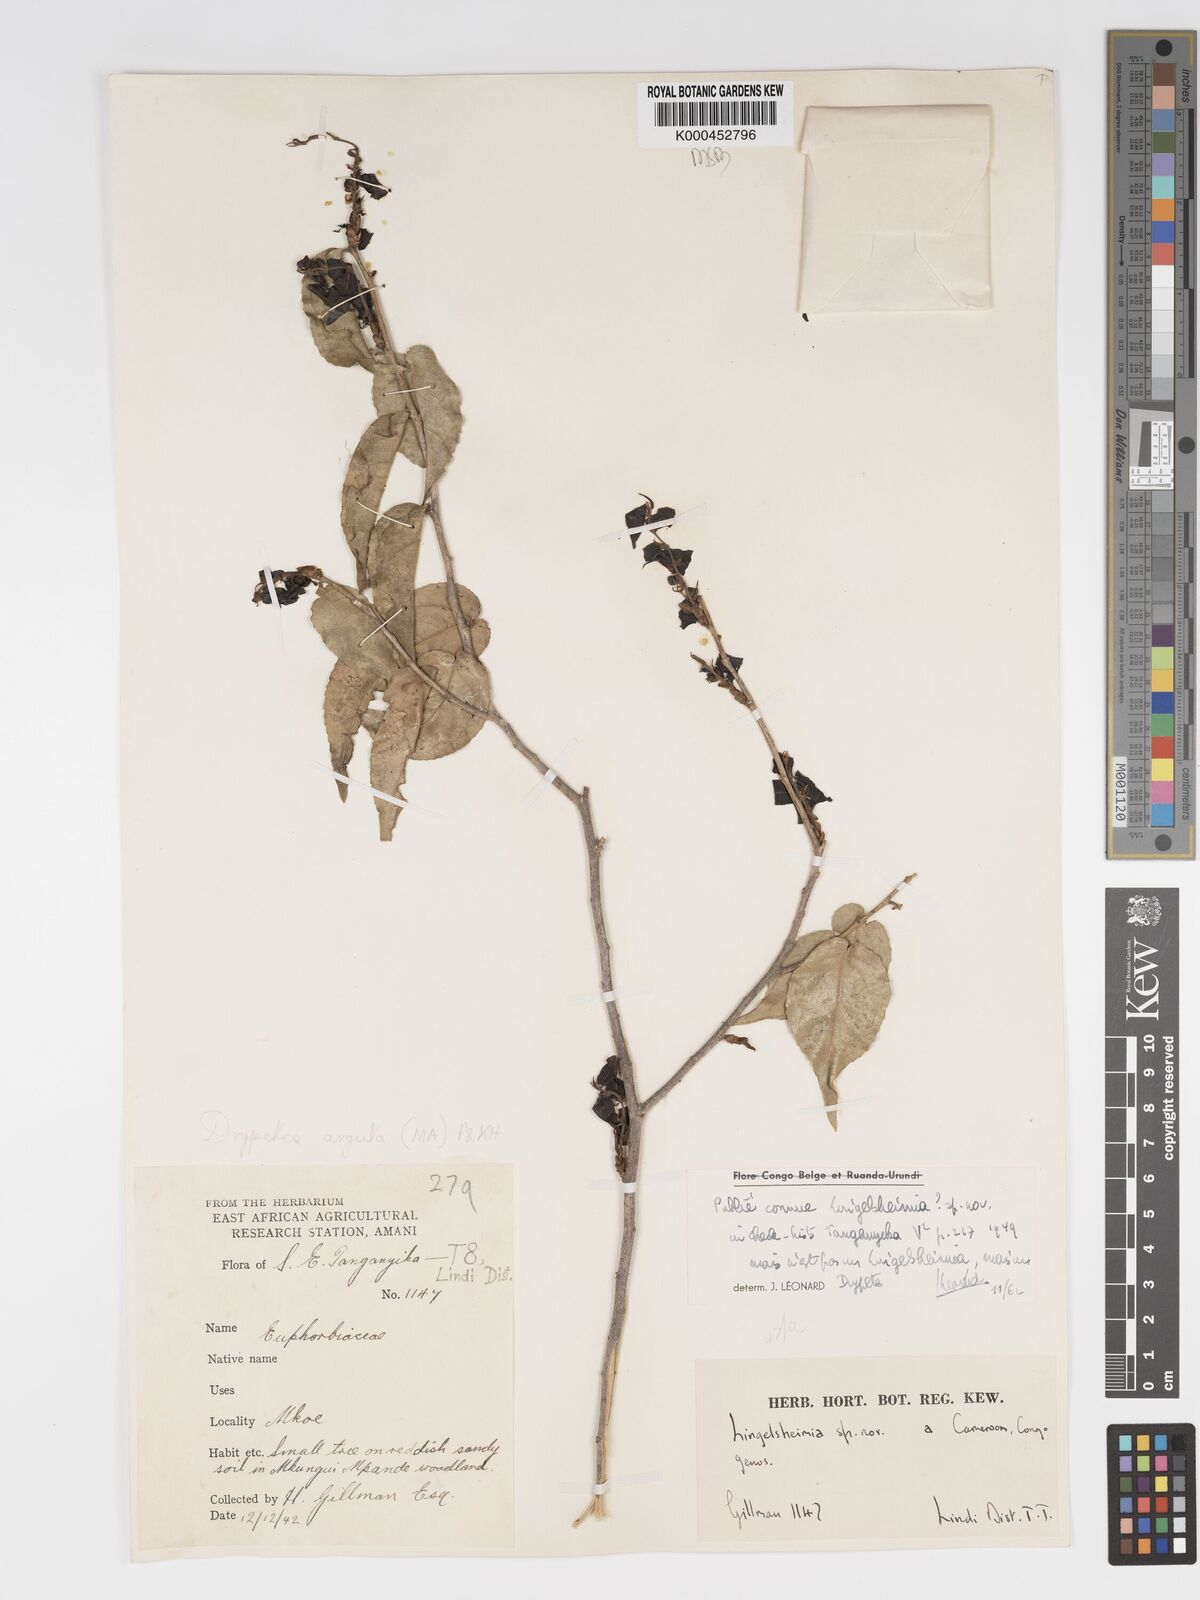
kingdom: Plantae
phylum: Tracheophyta
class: Magnoliopsida
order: Malpighiales
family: Putranjivaceae
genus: Drypetes
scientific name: Drypetes
